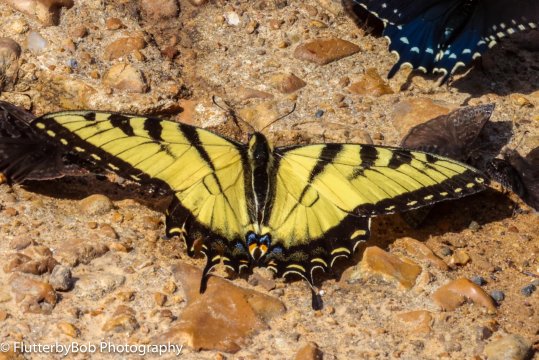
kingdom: Animalia
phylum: Arthropoda
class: Insecta
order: Lepidoptera
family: Papilionidae
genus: Pterourus
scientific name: Pterourus glaucus
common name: Eastern Tiger Swallowtail
